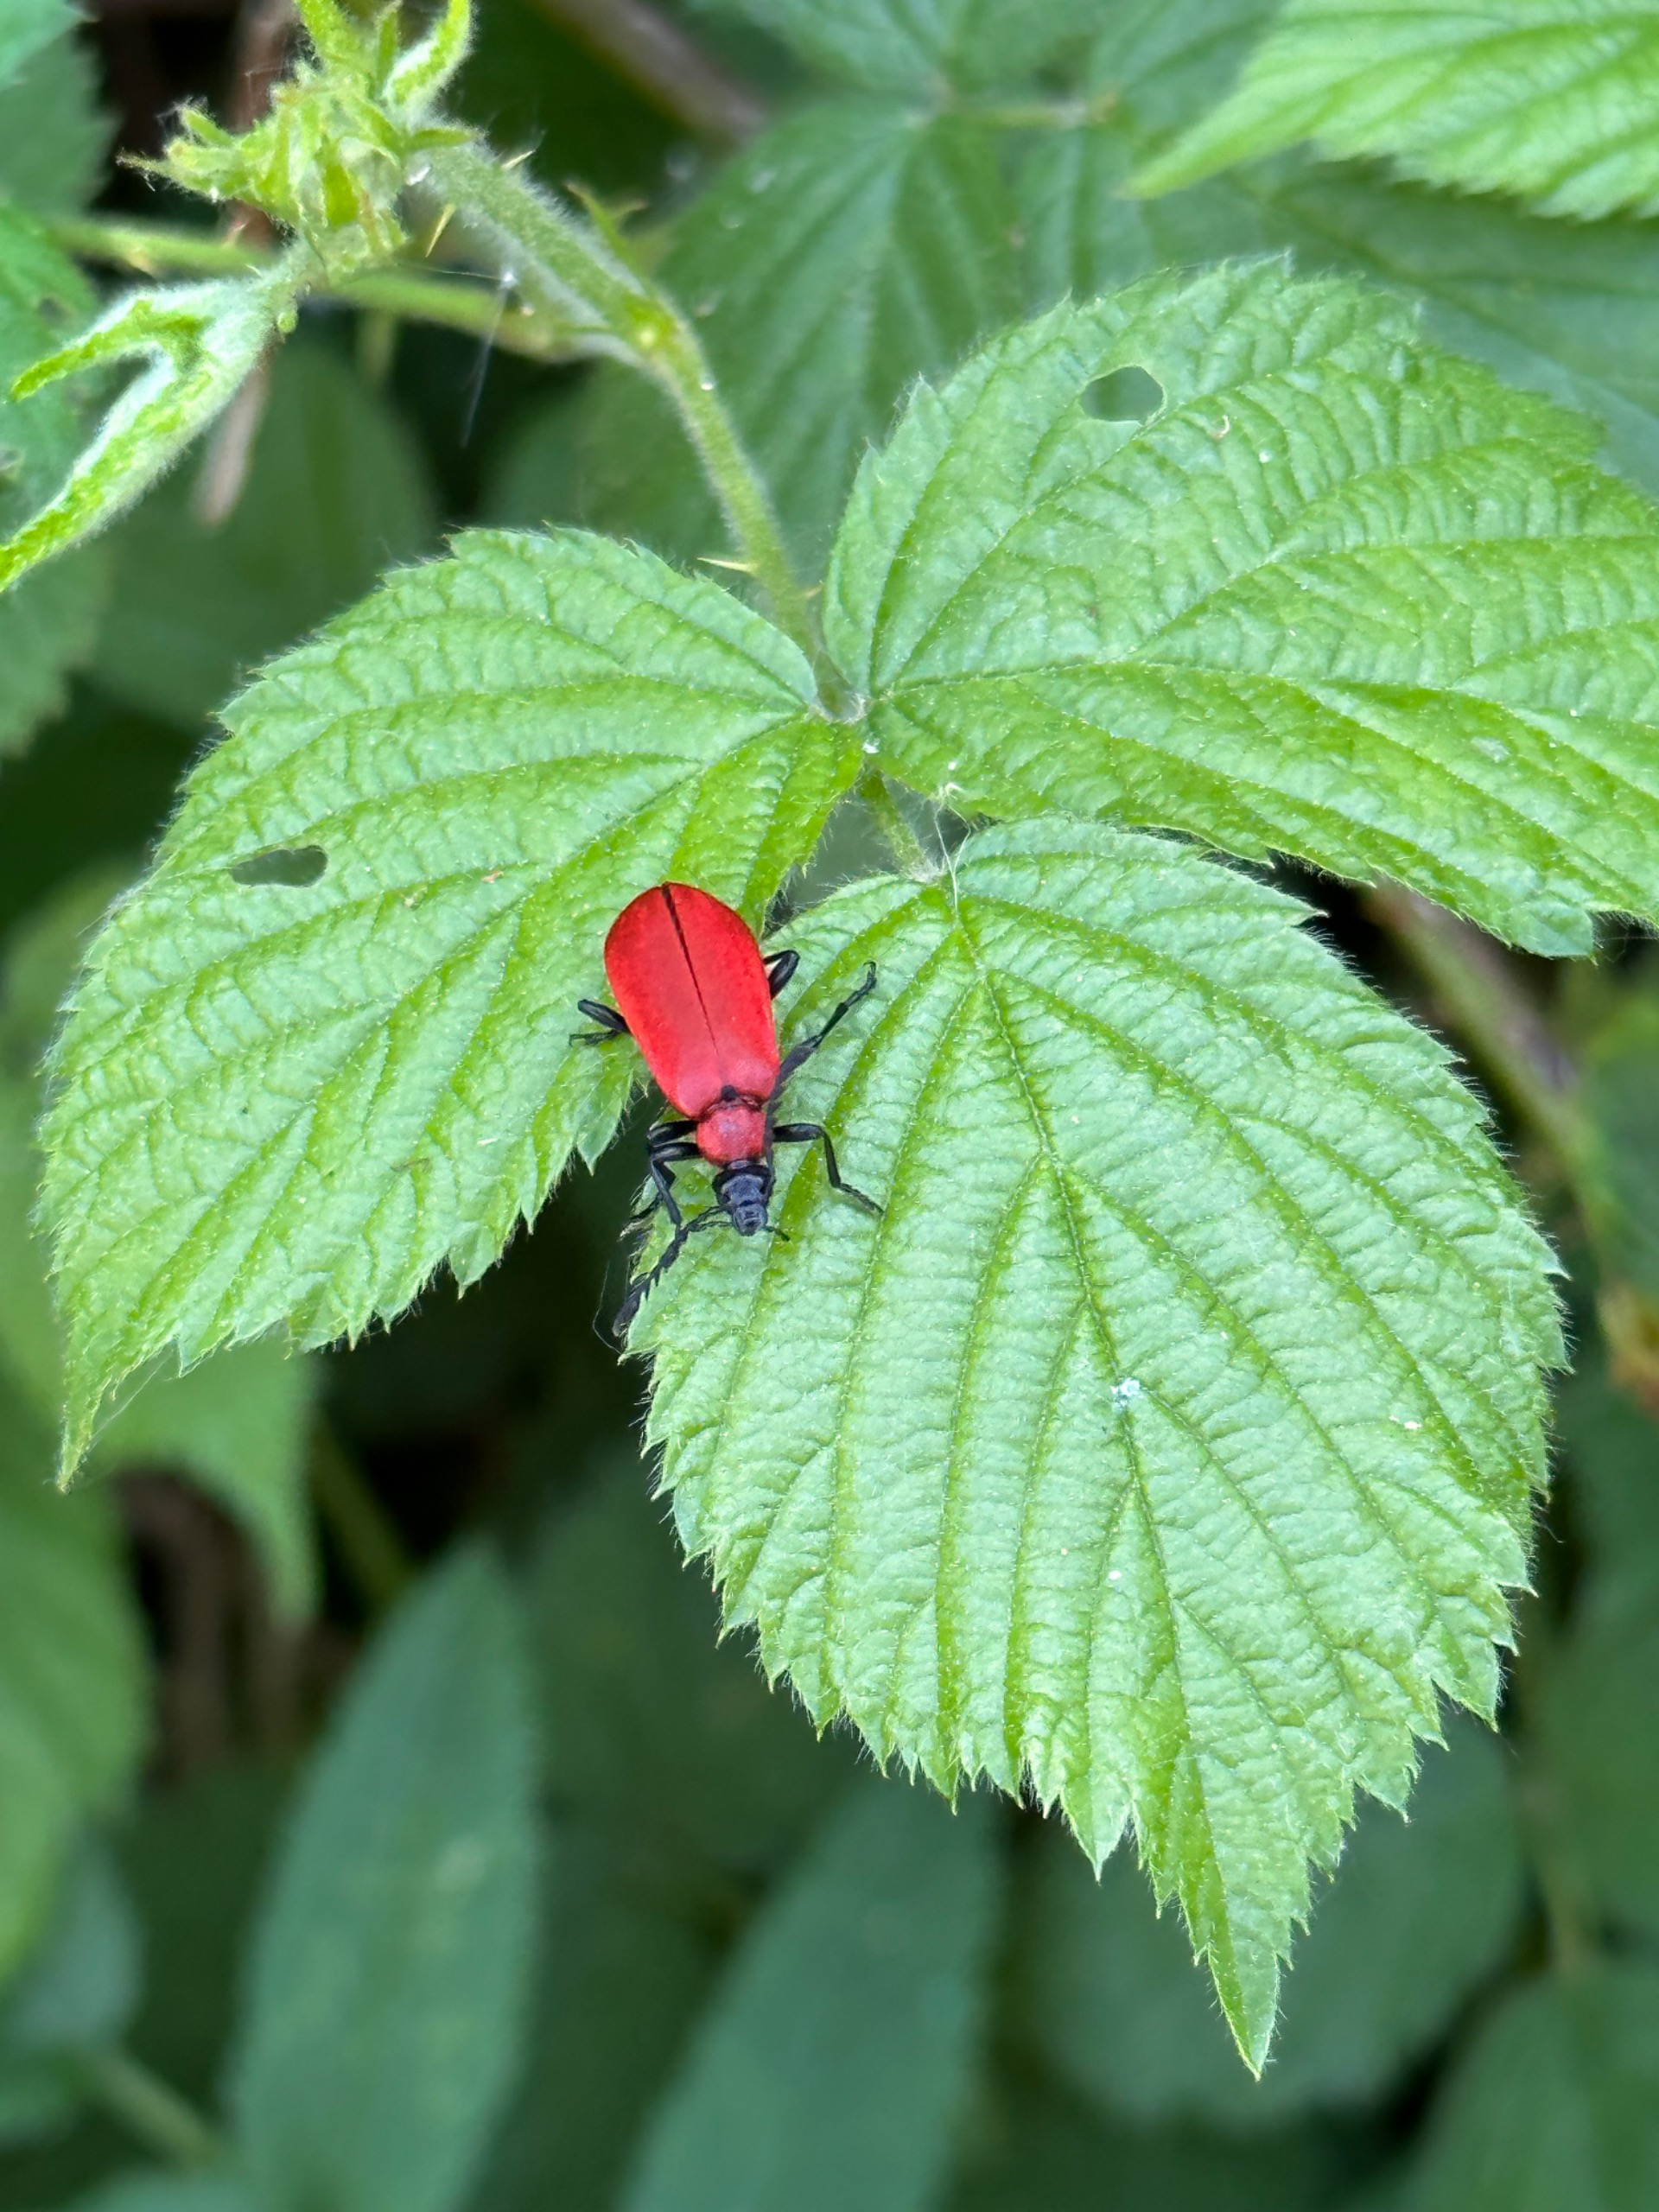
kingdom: Animalia
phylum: Arthropoda
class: Insecta
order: Coleoptera
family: Pyrochroidae
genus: Pyrochroa
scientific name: Pyrochroa coccinea
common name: Sorthovedet kardinalbille
